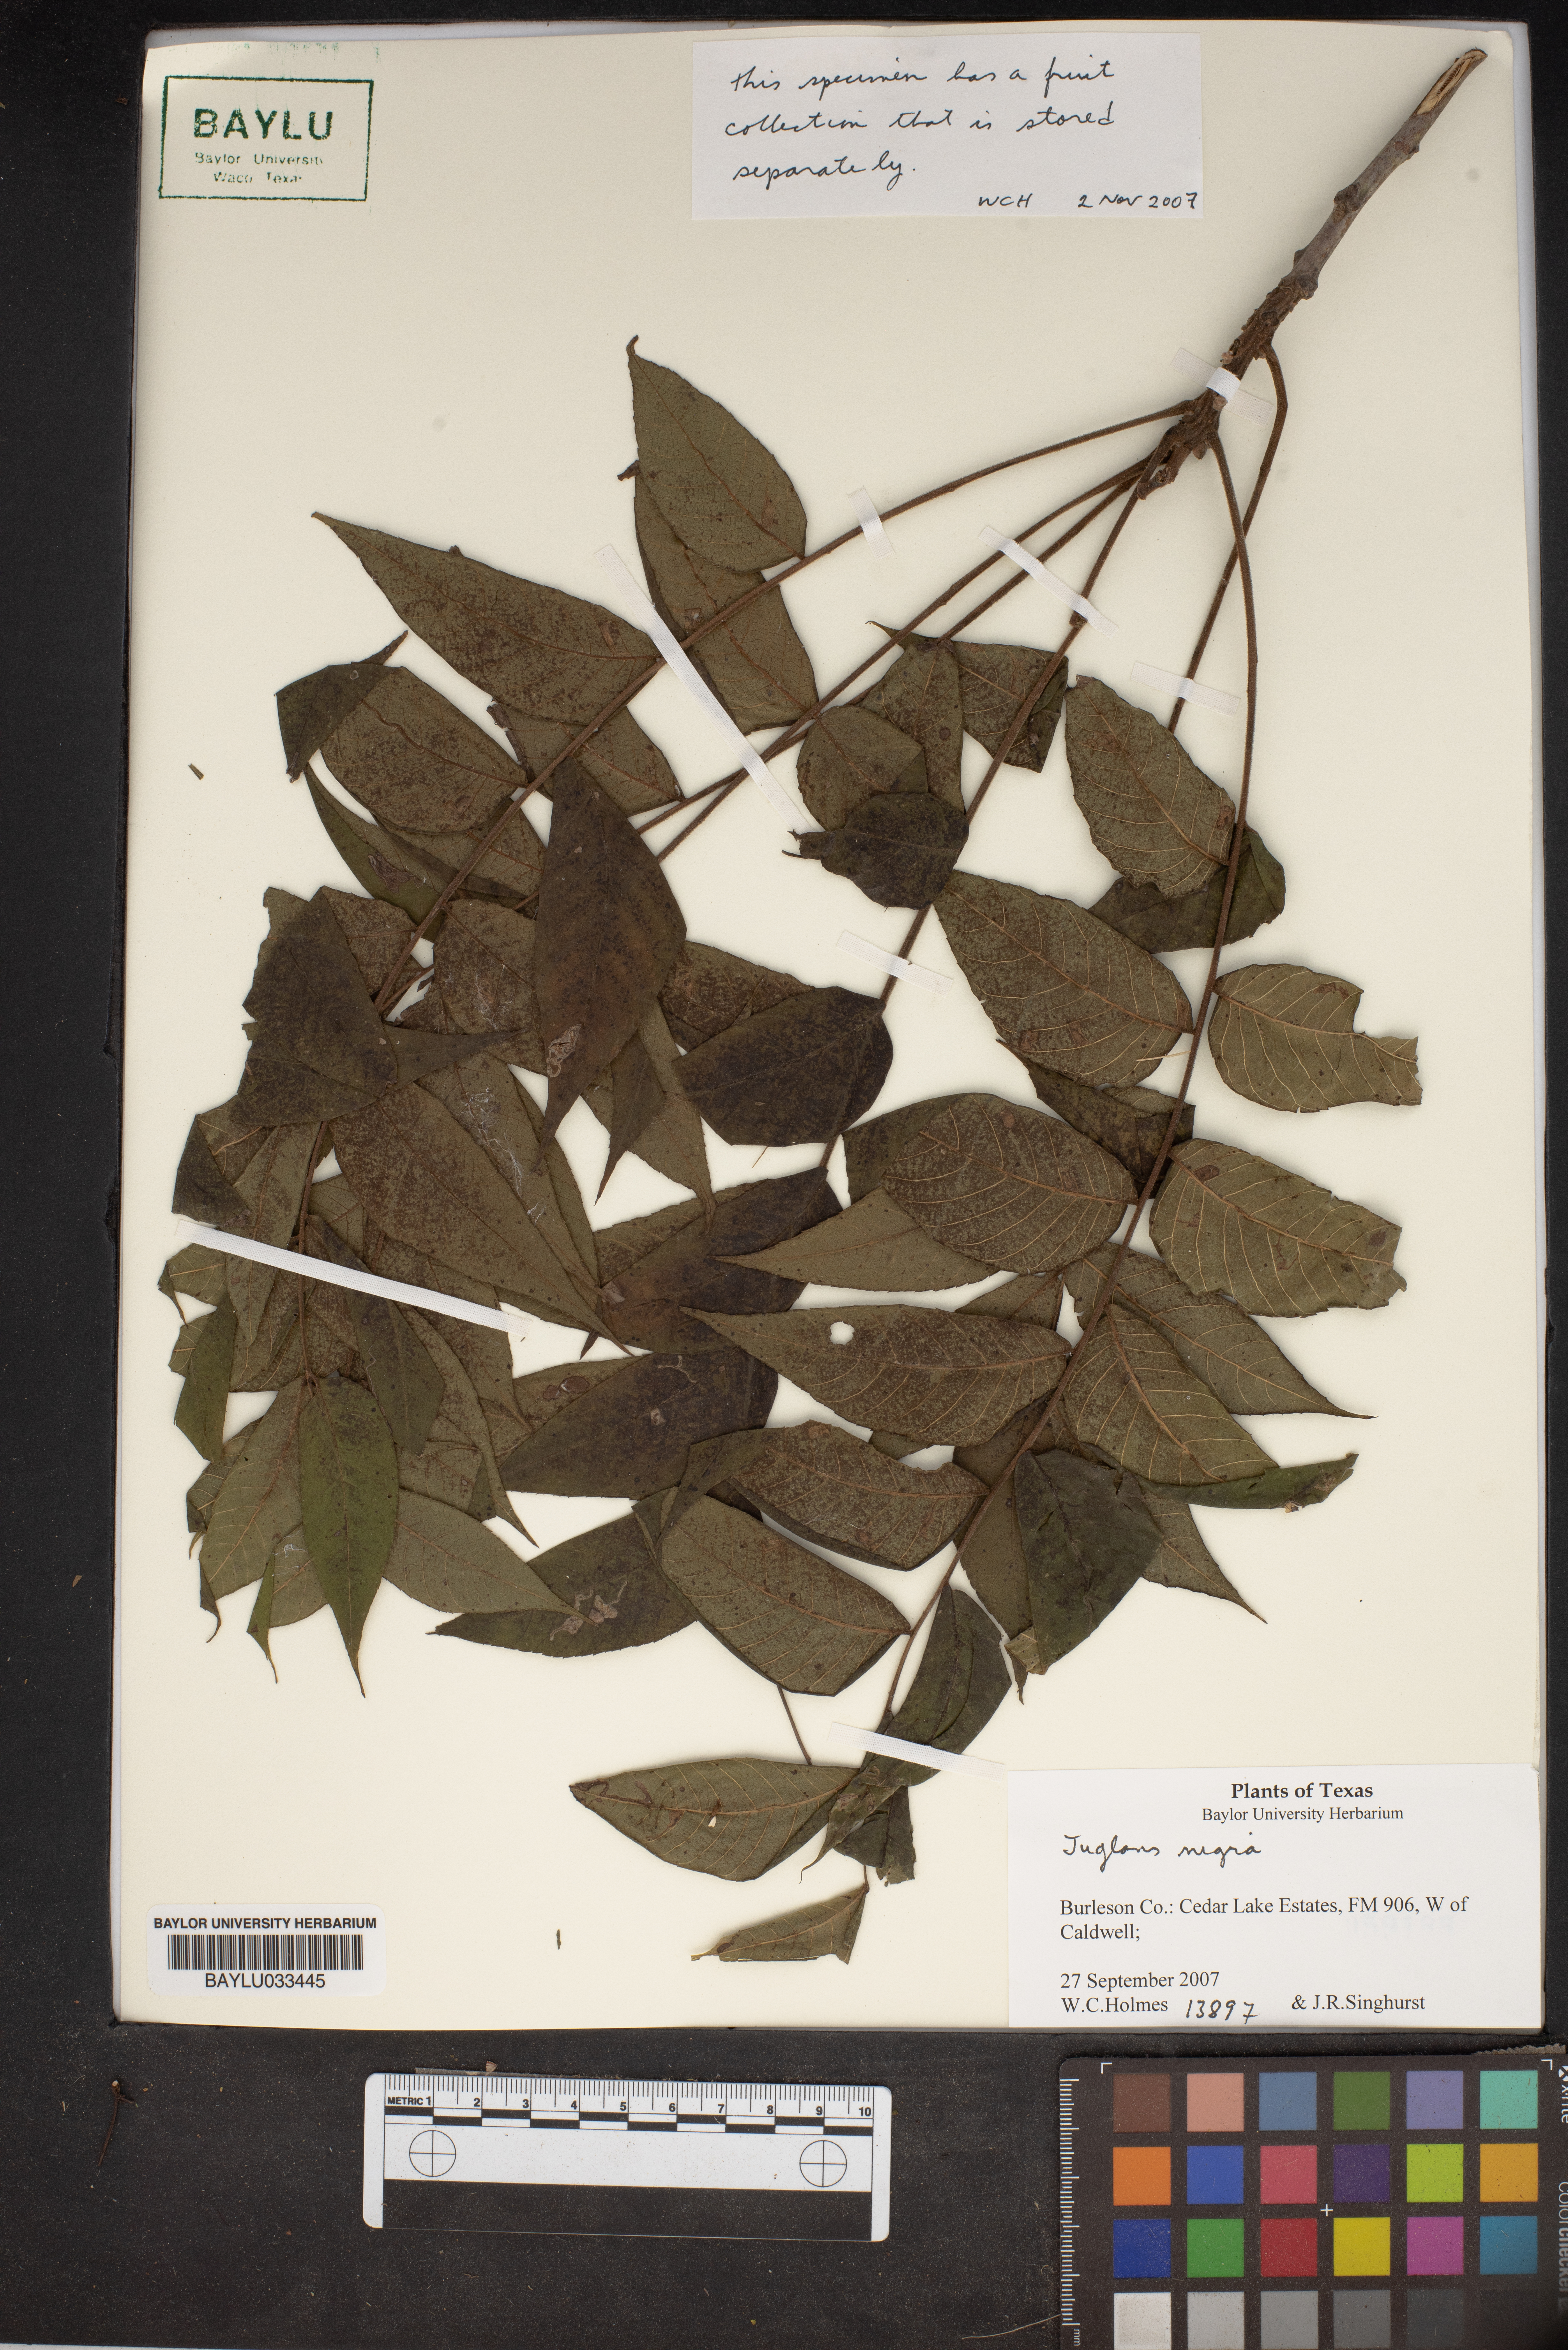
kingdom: Plantae
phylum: Tracheophyta
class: Magnoliopsida
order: Fagales
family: Juglandaceae
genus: Juglans
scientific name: Juglans nigra
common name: Black walnut
